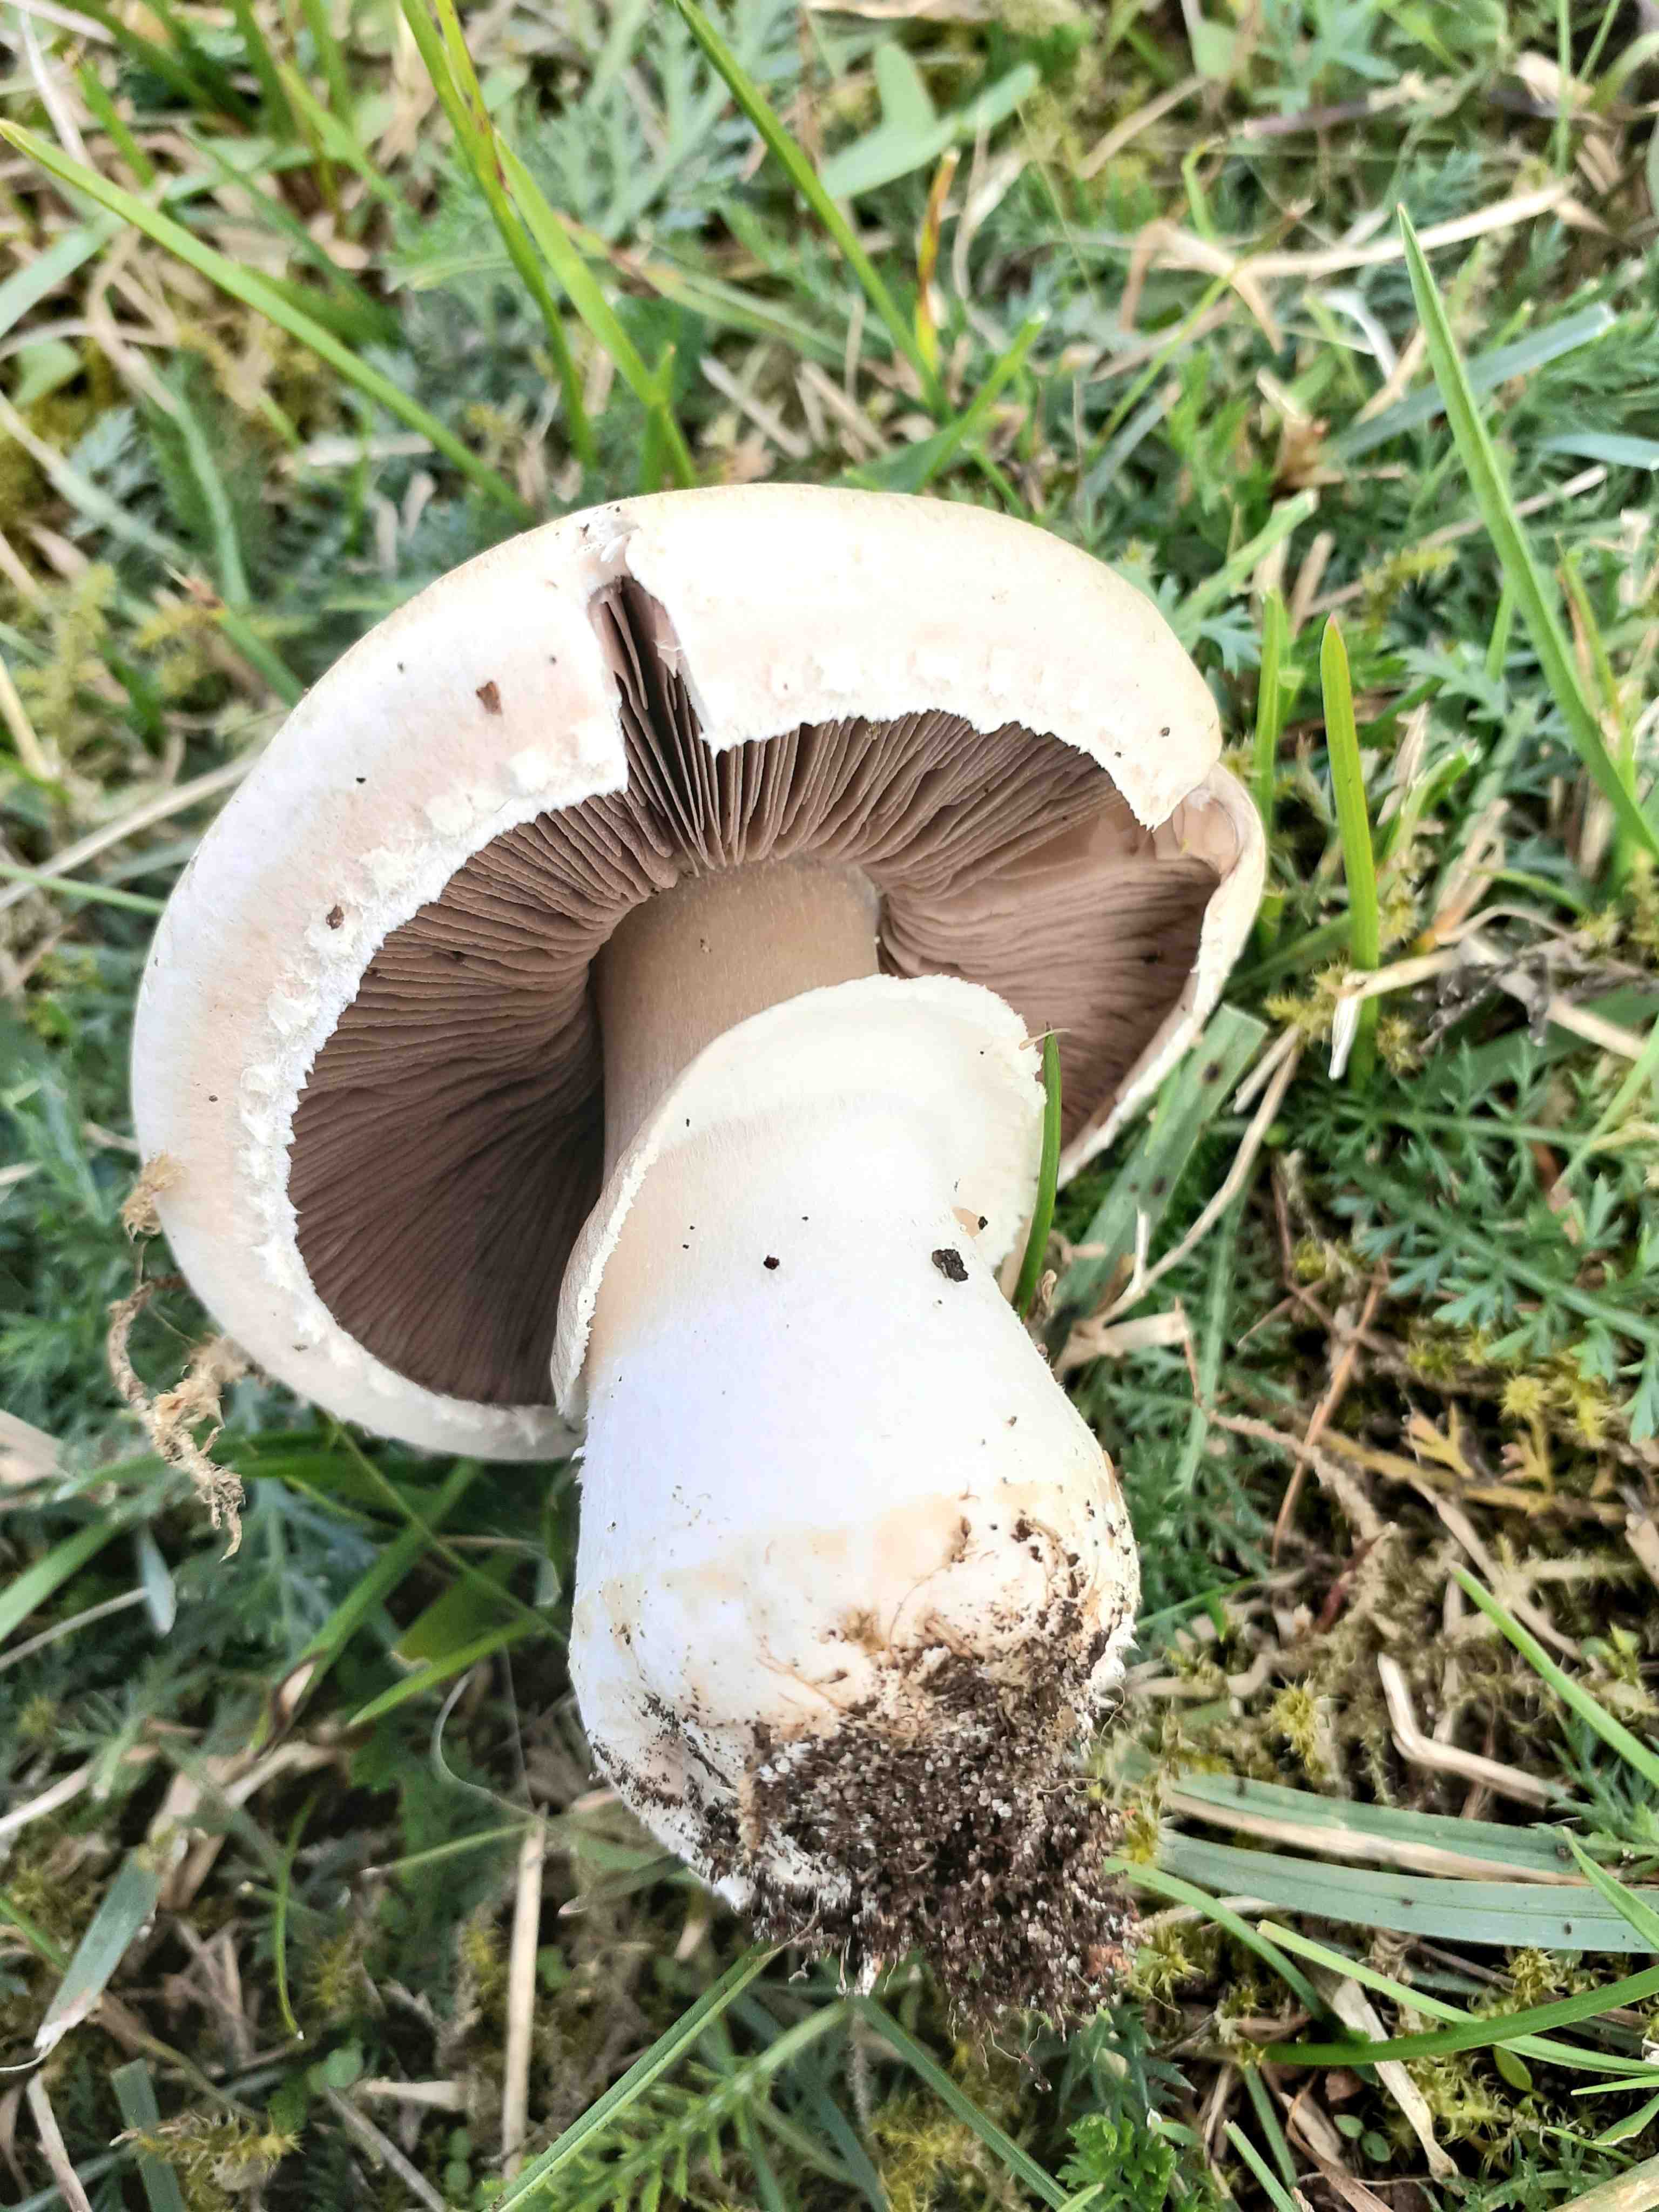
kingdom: Fungi
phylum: Basidiomycota
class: Agaricomycetes
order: Agaricales
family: Agaricaceae
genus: Agaricus
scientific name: Agaricus campestris
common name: mark-champignon
